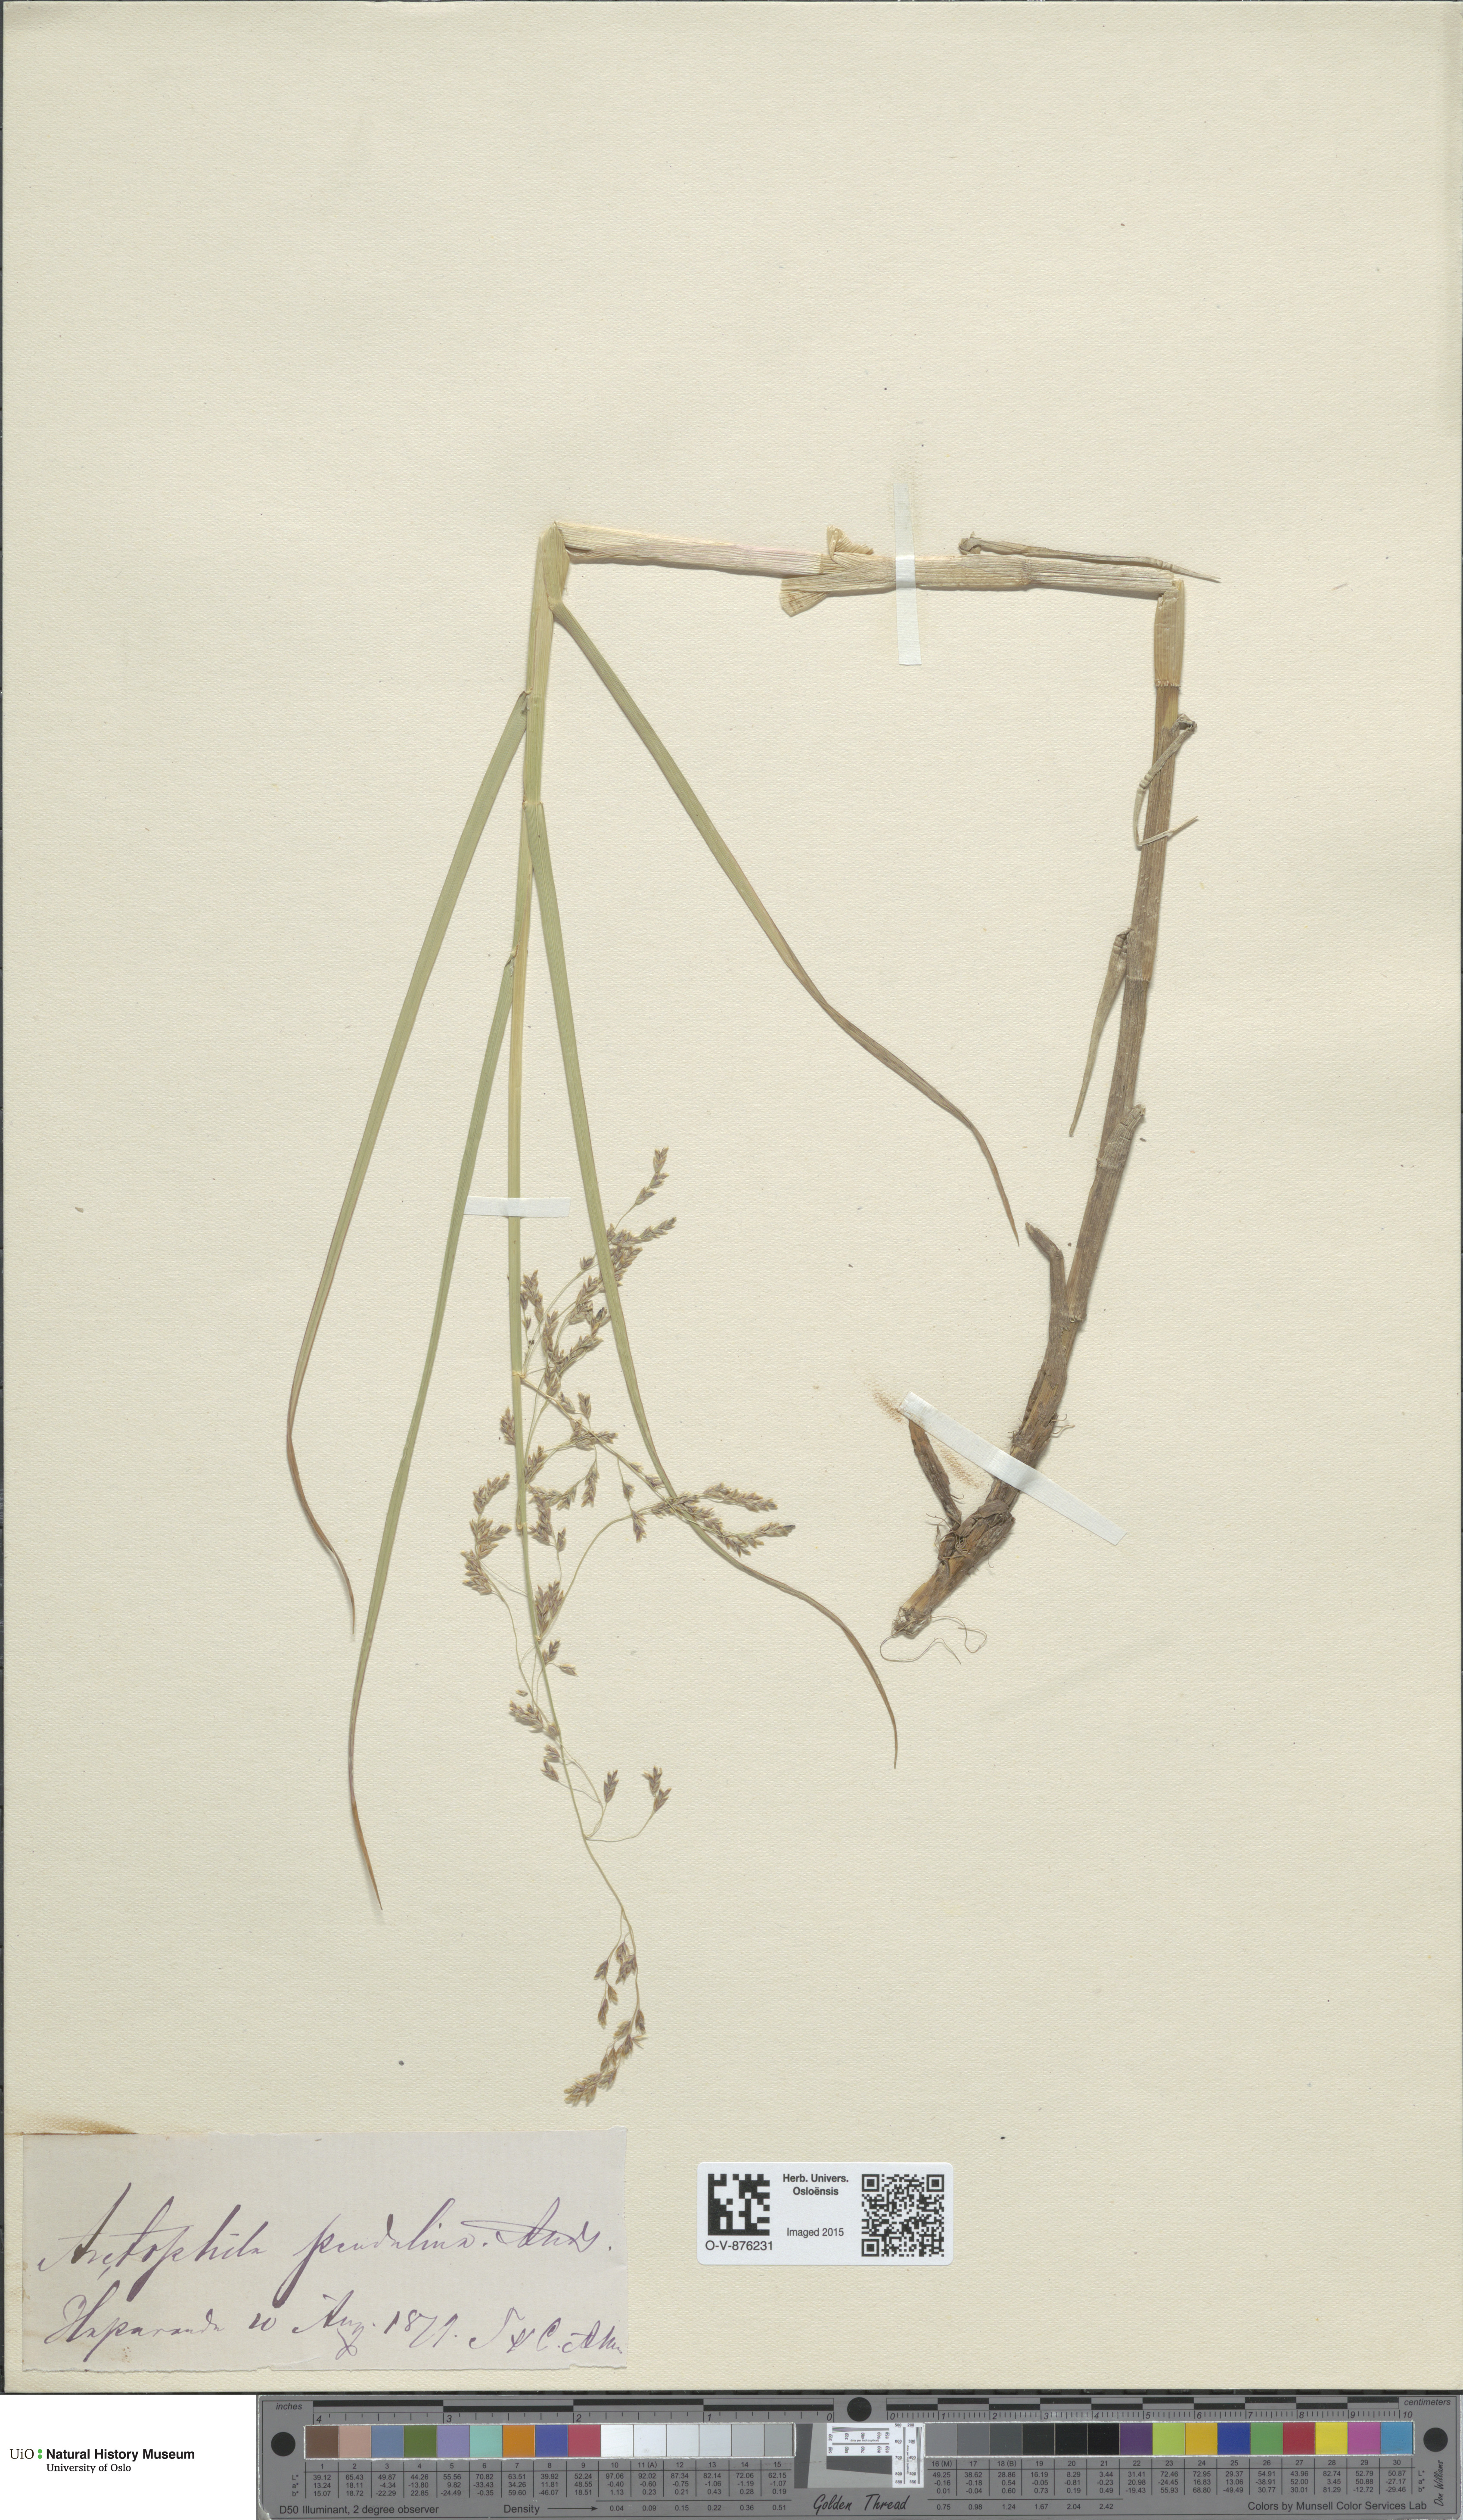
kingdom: Plantae
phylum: Tracheophyta
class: Liliopsida
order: Poales
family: Poaceae
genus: Dupontia
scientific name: Dupontia fulva
